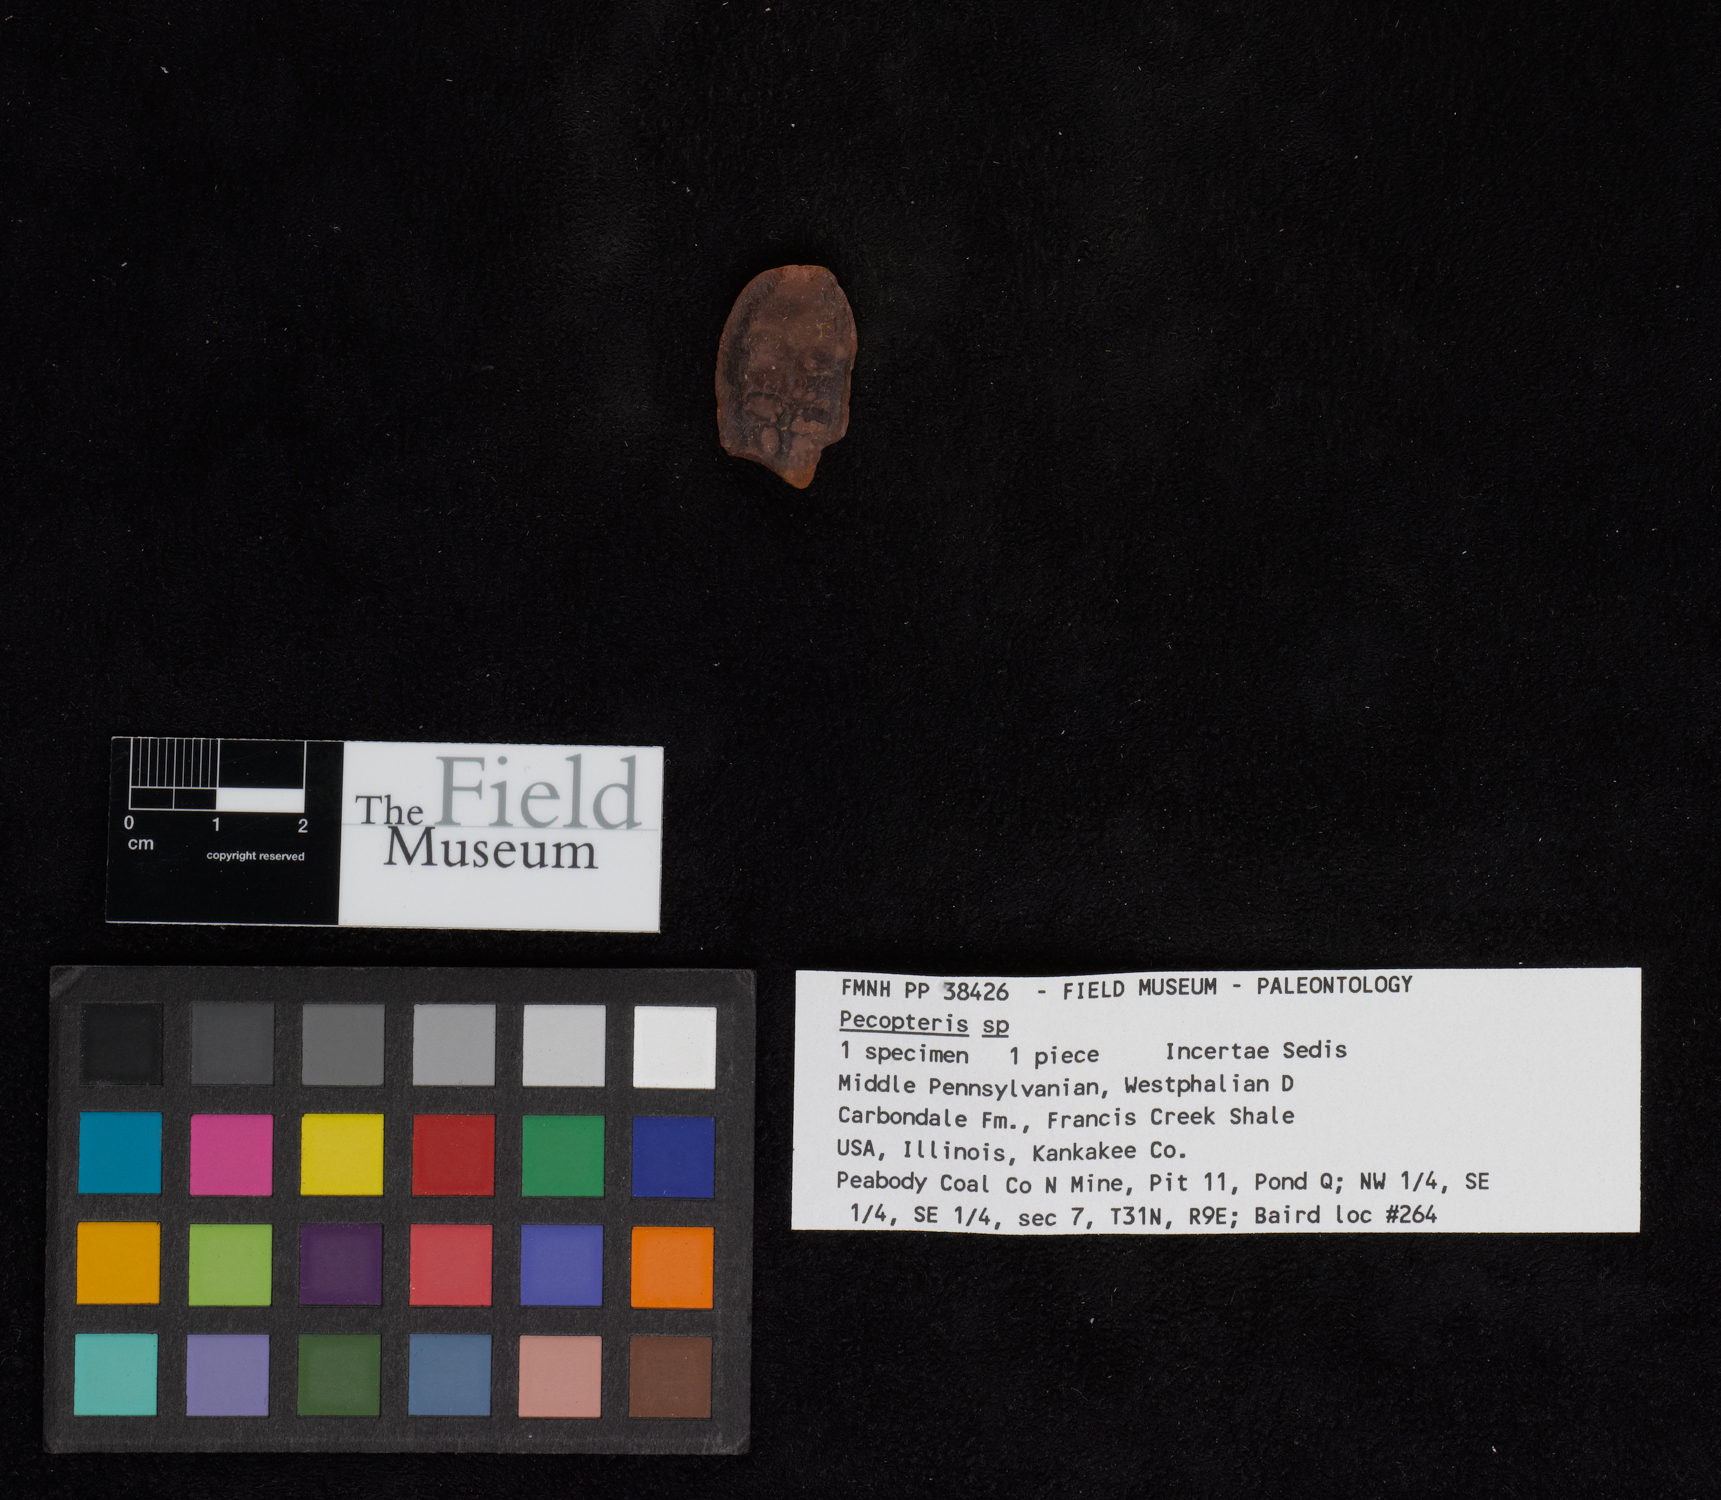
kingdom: Plantae
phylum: Tracheophyta
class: Polypodiopsida
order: Marattiales
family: Asterothecaceae
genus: Pecopteris
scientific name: Pecopteris
